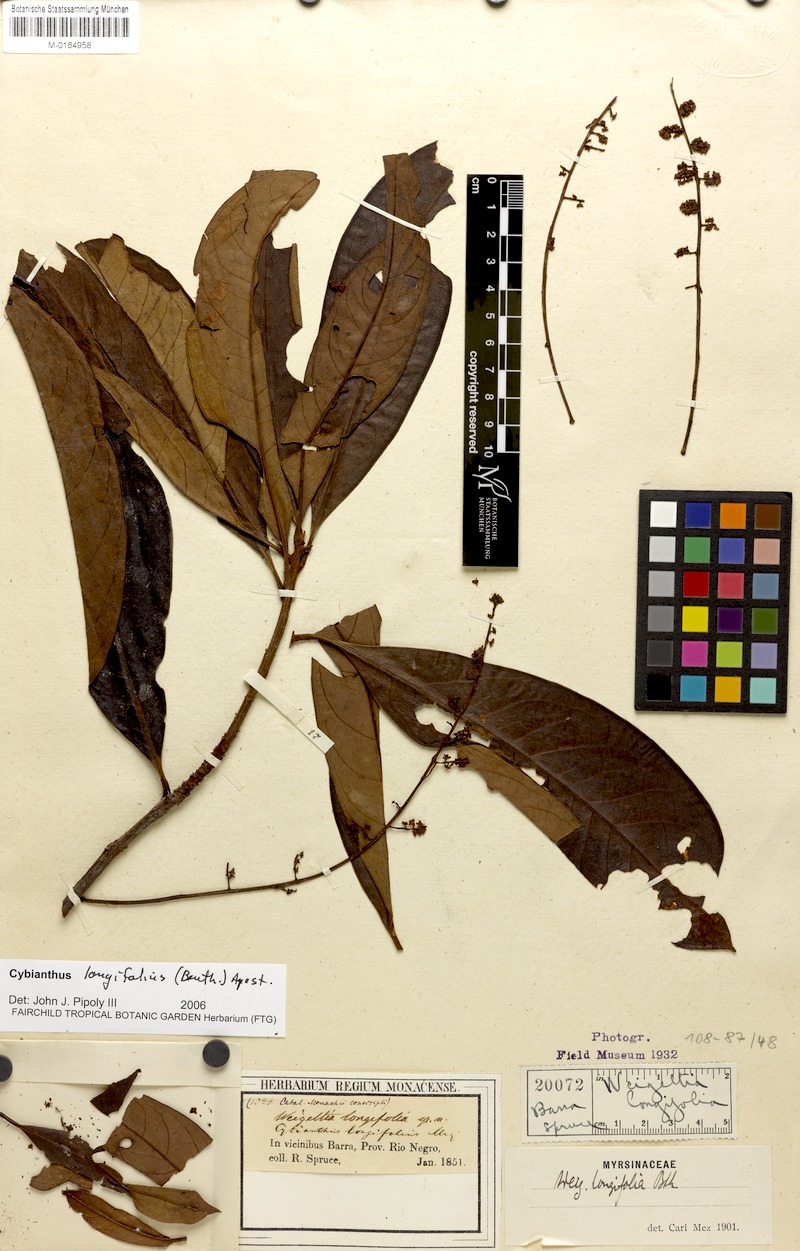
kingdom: Plantae
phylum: Tracheophyta
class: Magnoliopsida
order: Ericales
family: Primulaceae
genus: Cybianthus
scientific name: Cybianthus longifolius
